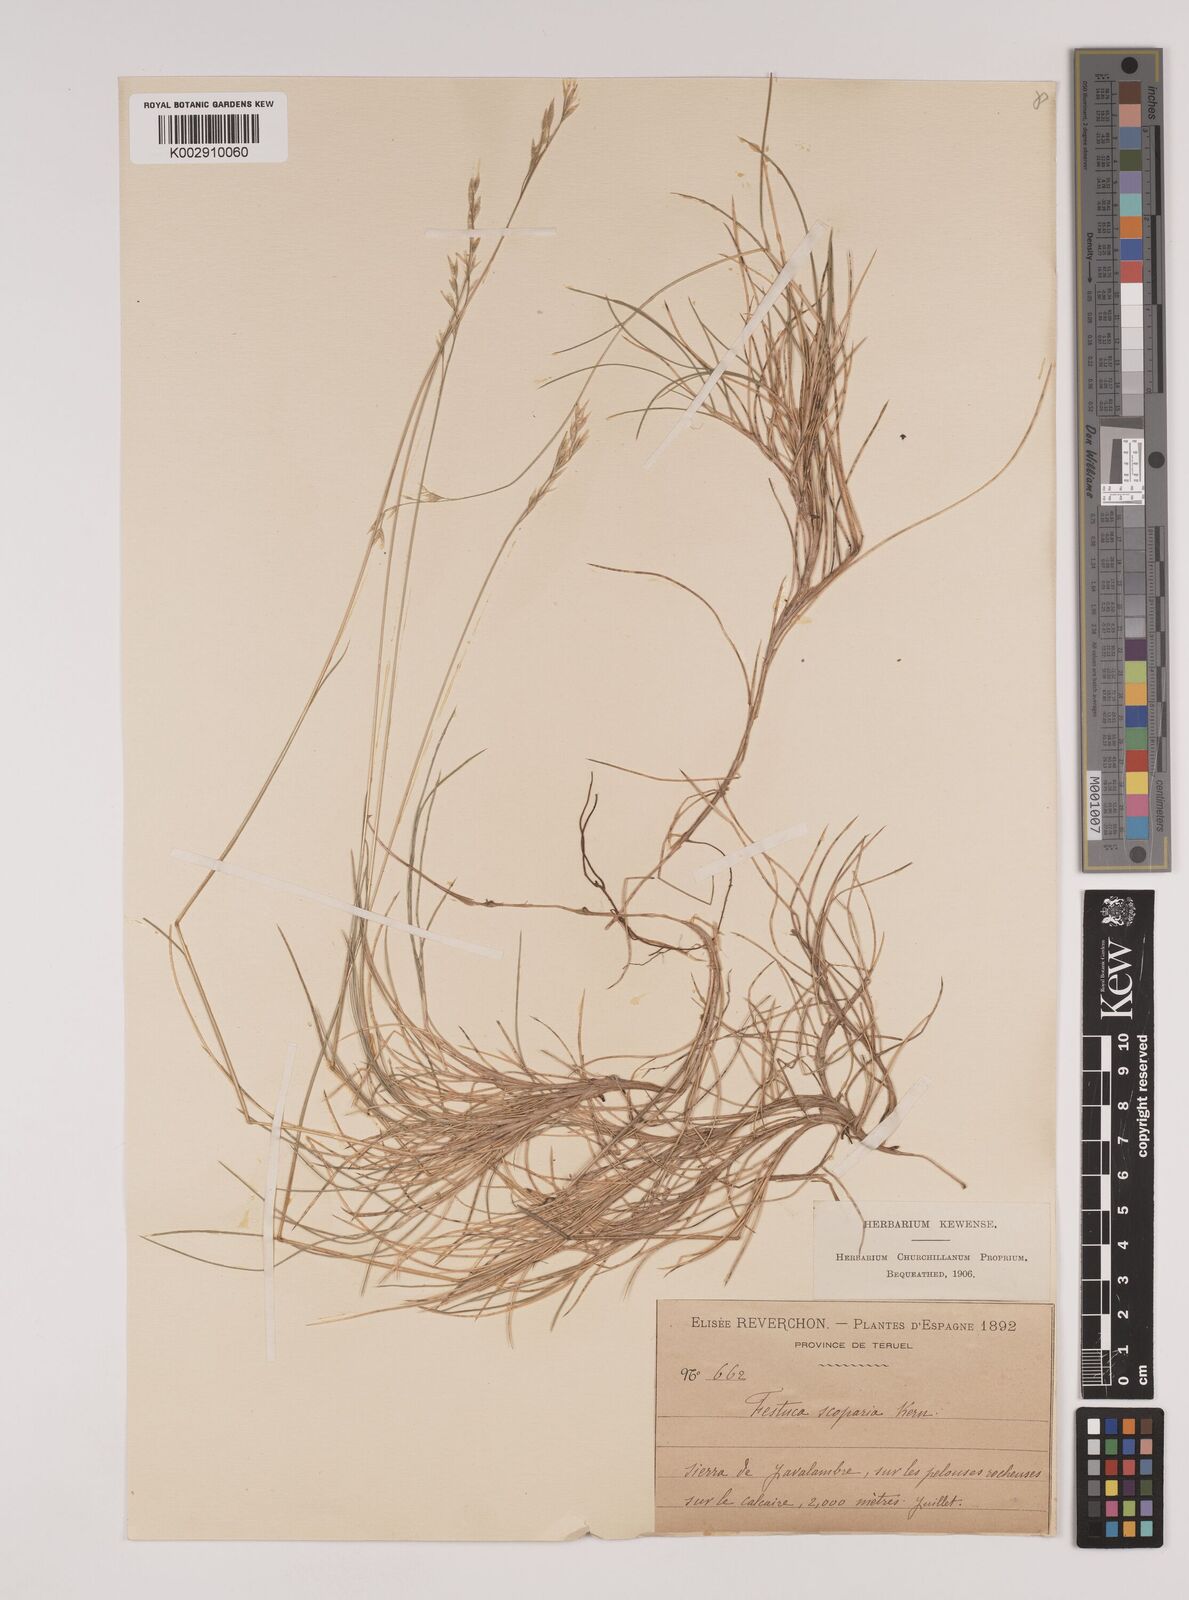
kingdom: Plantae
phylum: Tracheophyta
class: Liliopsida
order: Poales
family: Poaceae
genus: Festuca
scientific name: Festuca gautieri
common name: Spiky fescue
